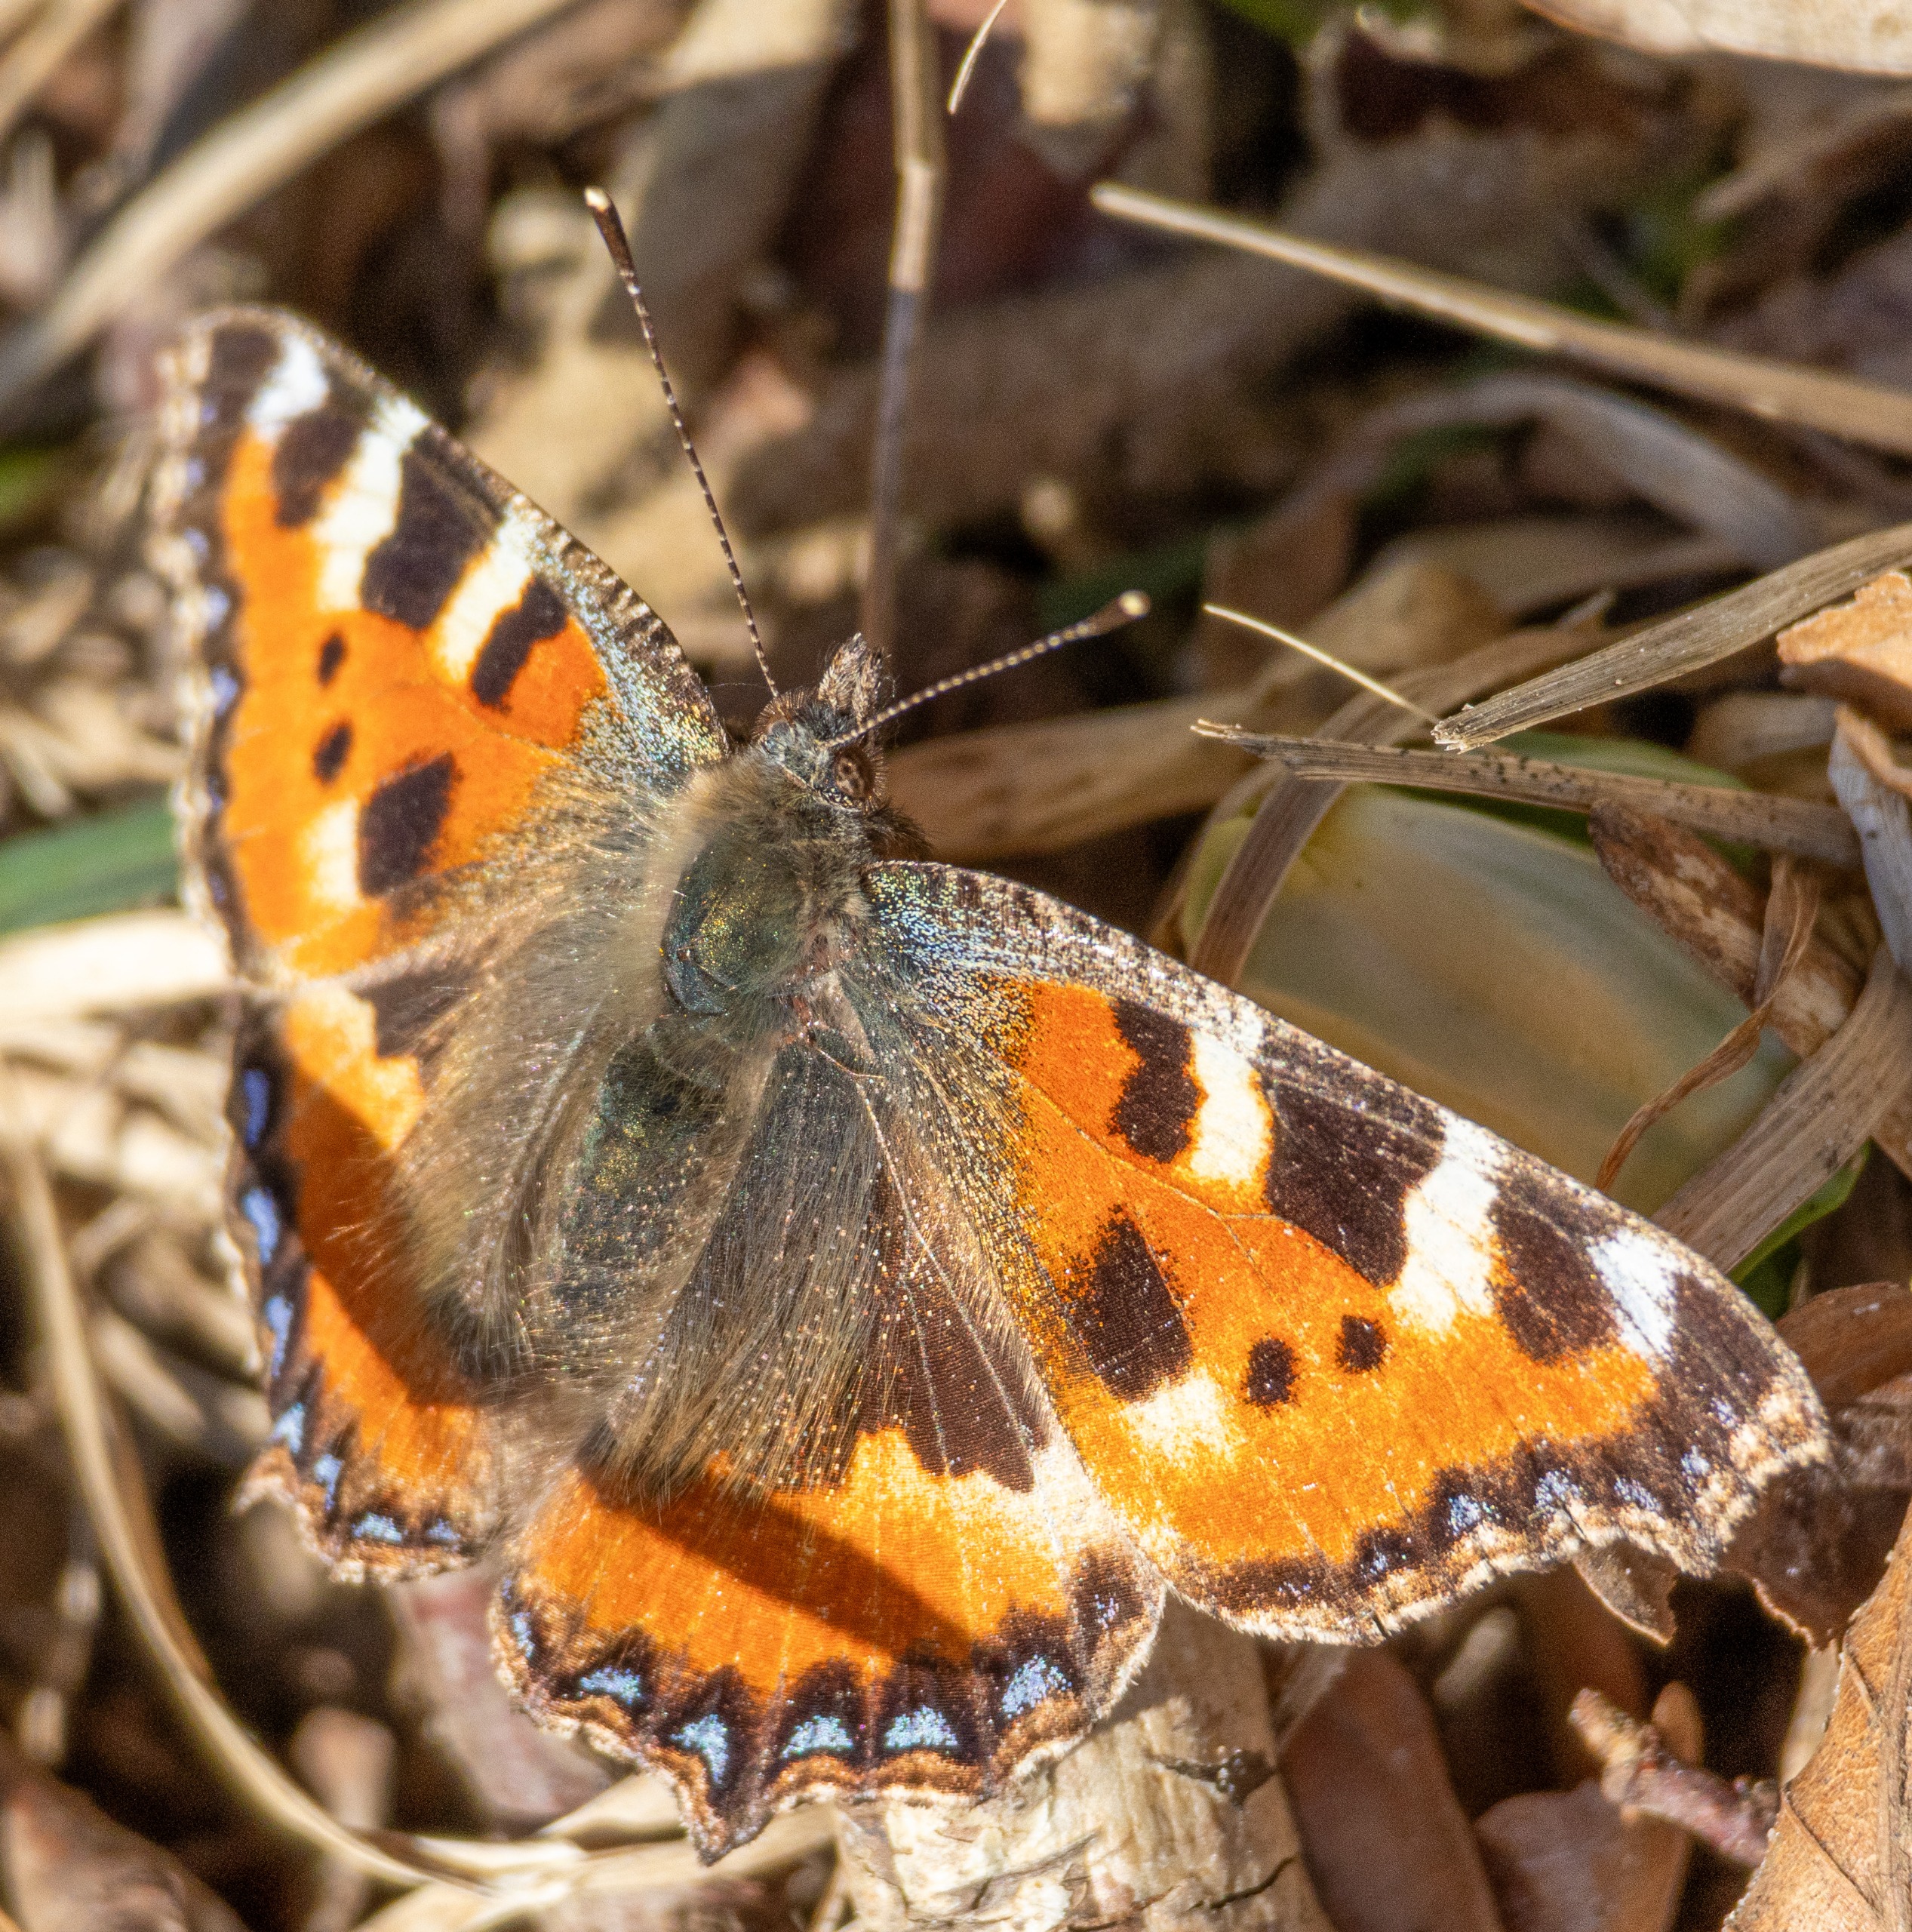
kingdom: Animalia
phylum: Arthropoda
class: Insecta
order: Lepidoptera
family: Nymphalidae
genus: Aglais
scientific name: Aglais urticae
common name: Nældens takvinge
